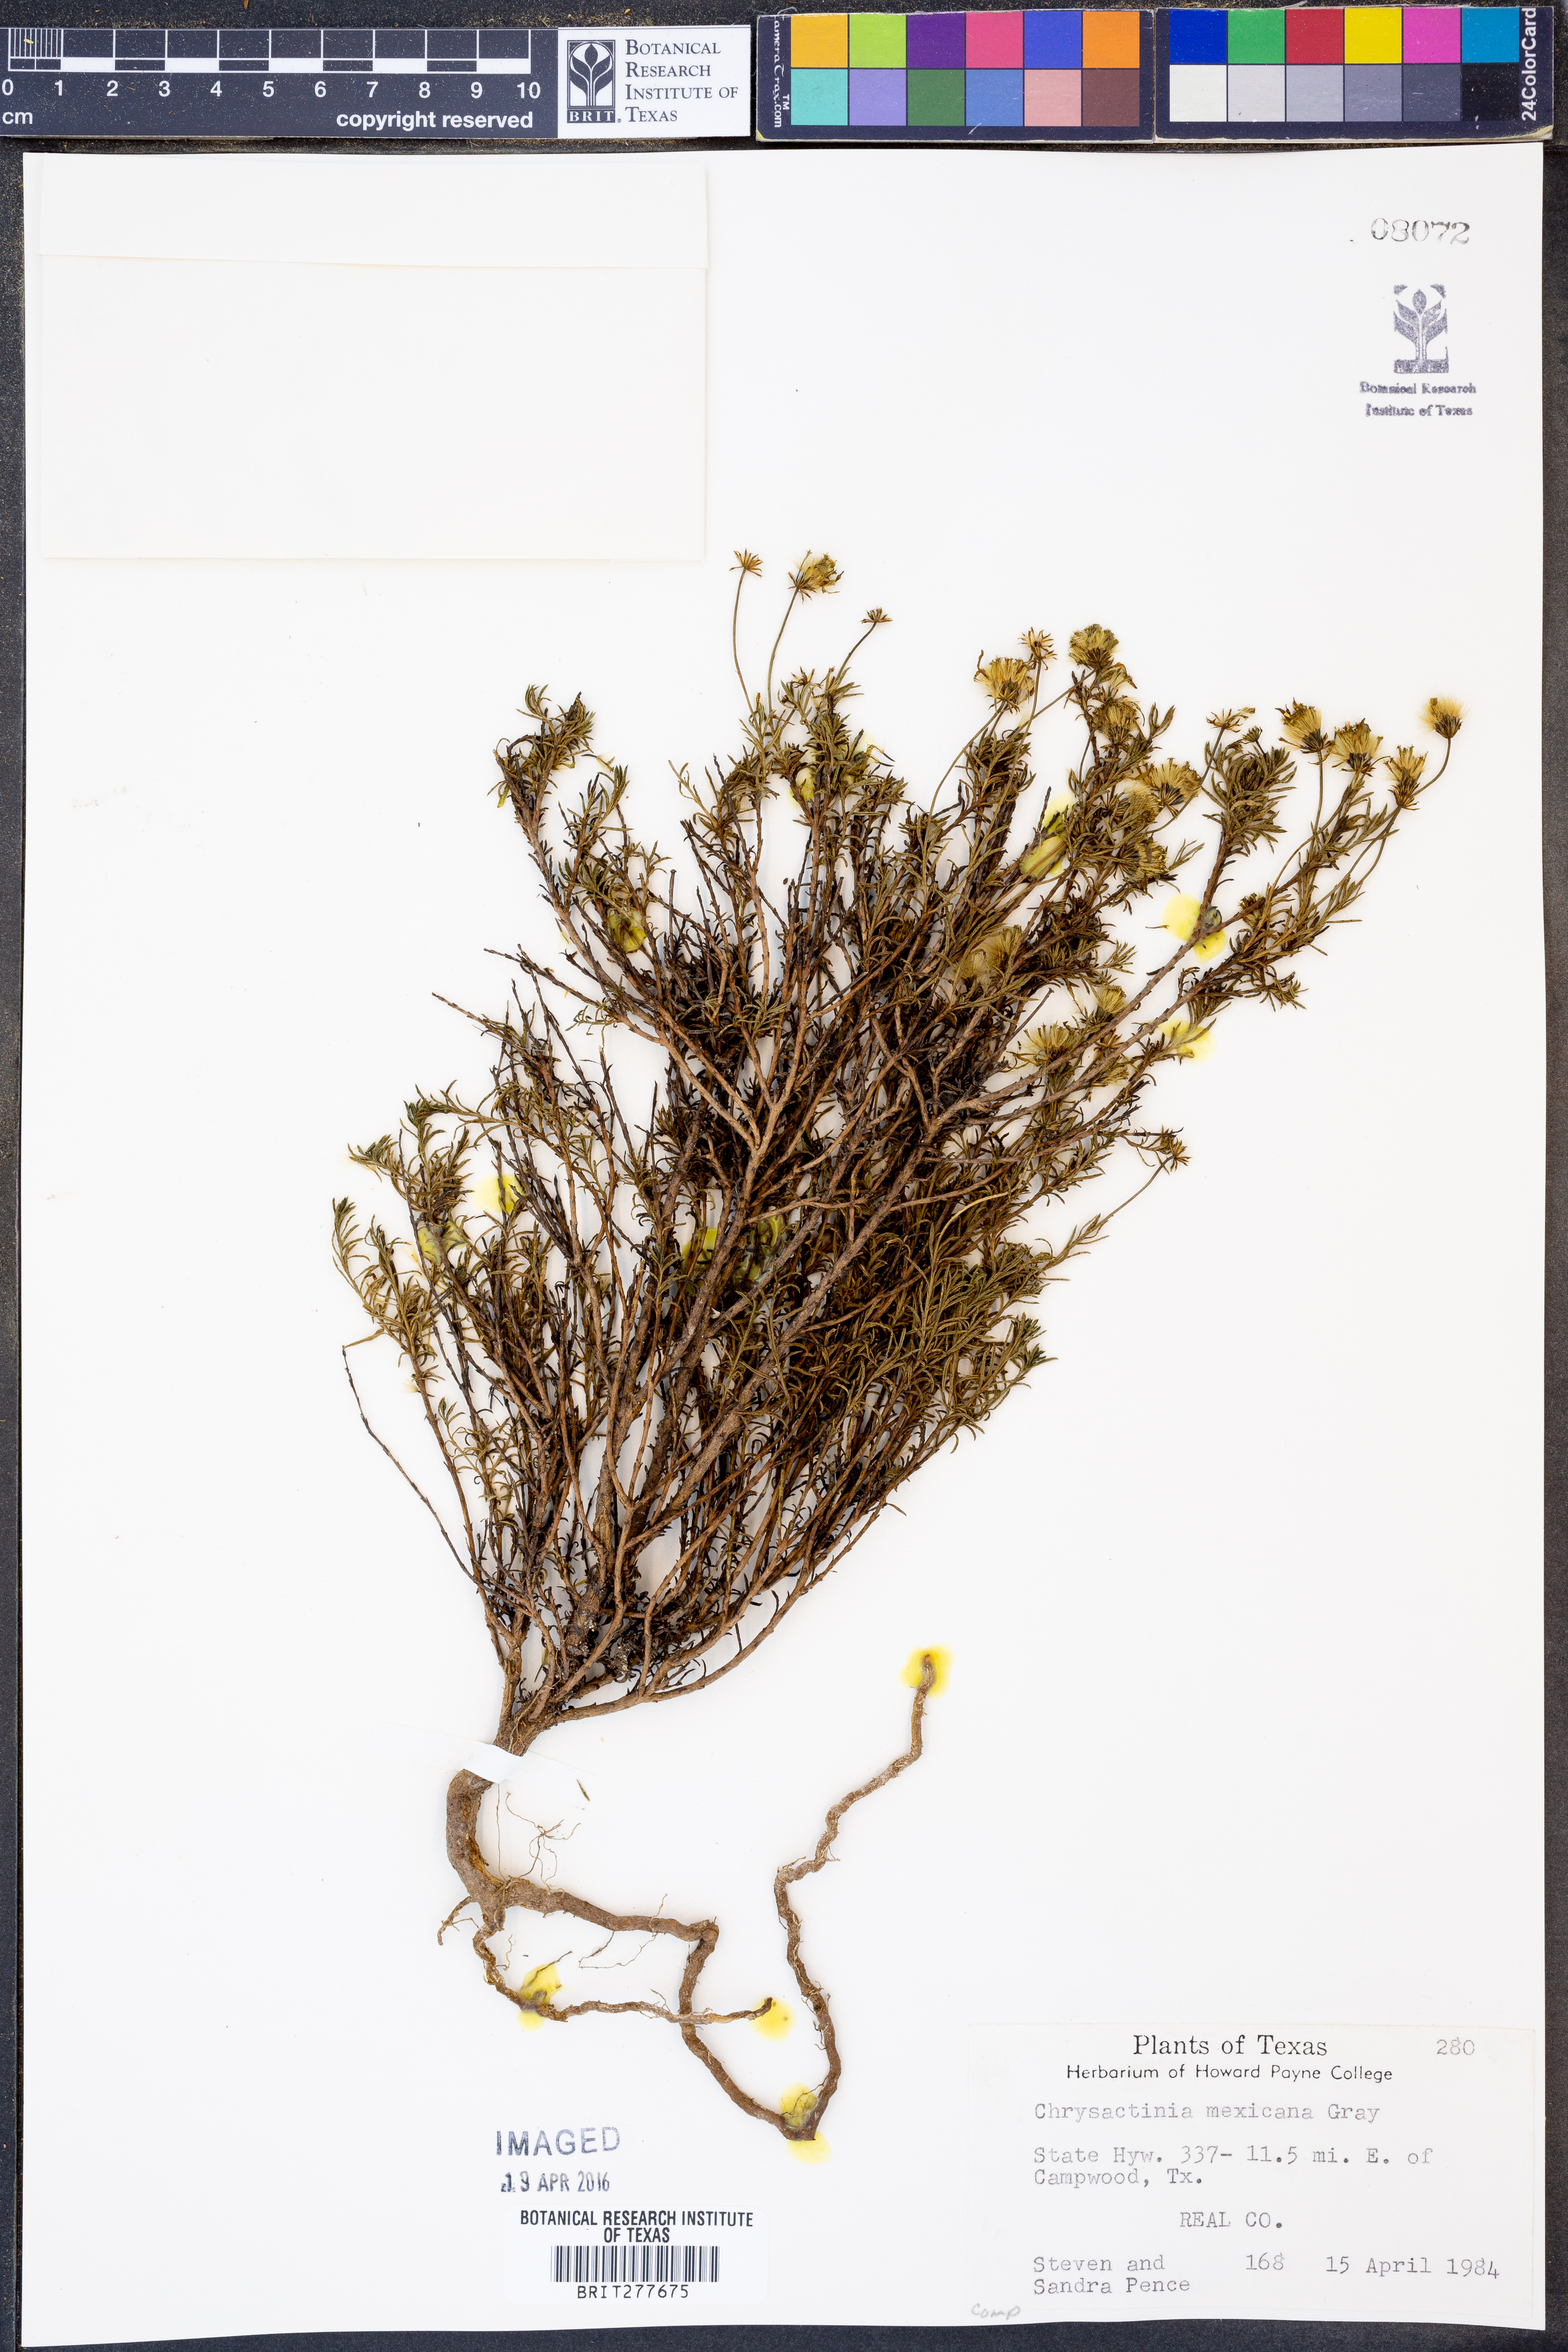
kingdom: Plantae
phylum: Tracheophyta
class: Magnoliopsida
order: Asterales
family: Asteraceae
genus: Chrysactinia
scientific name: Chrysactinia mexicana
